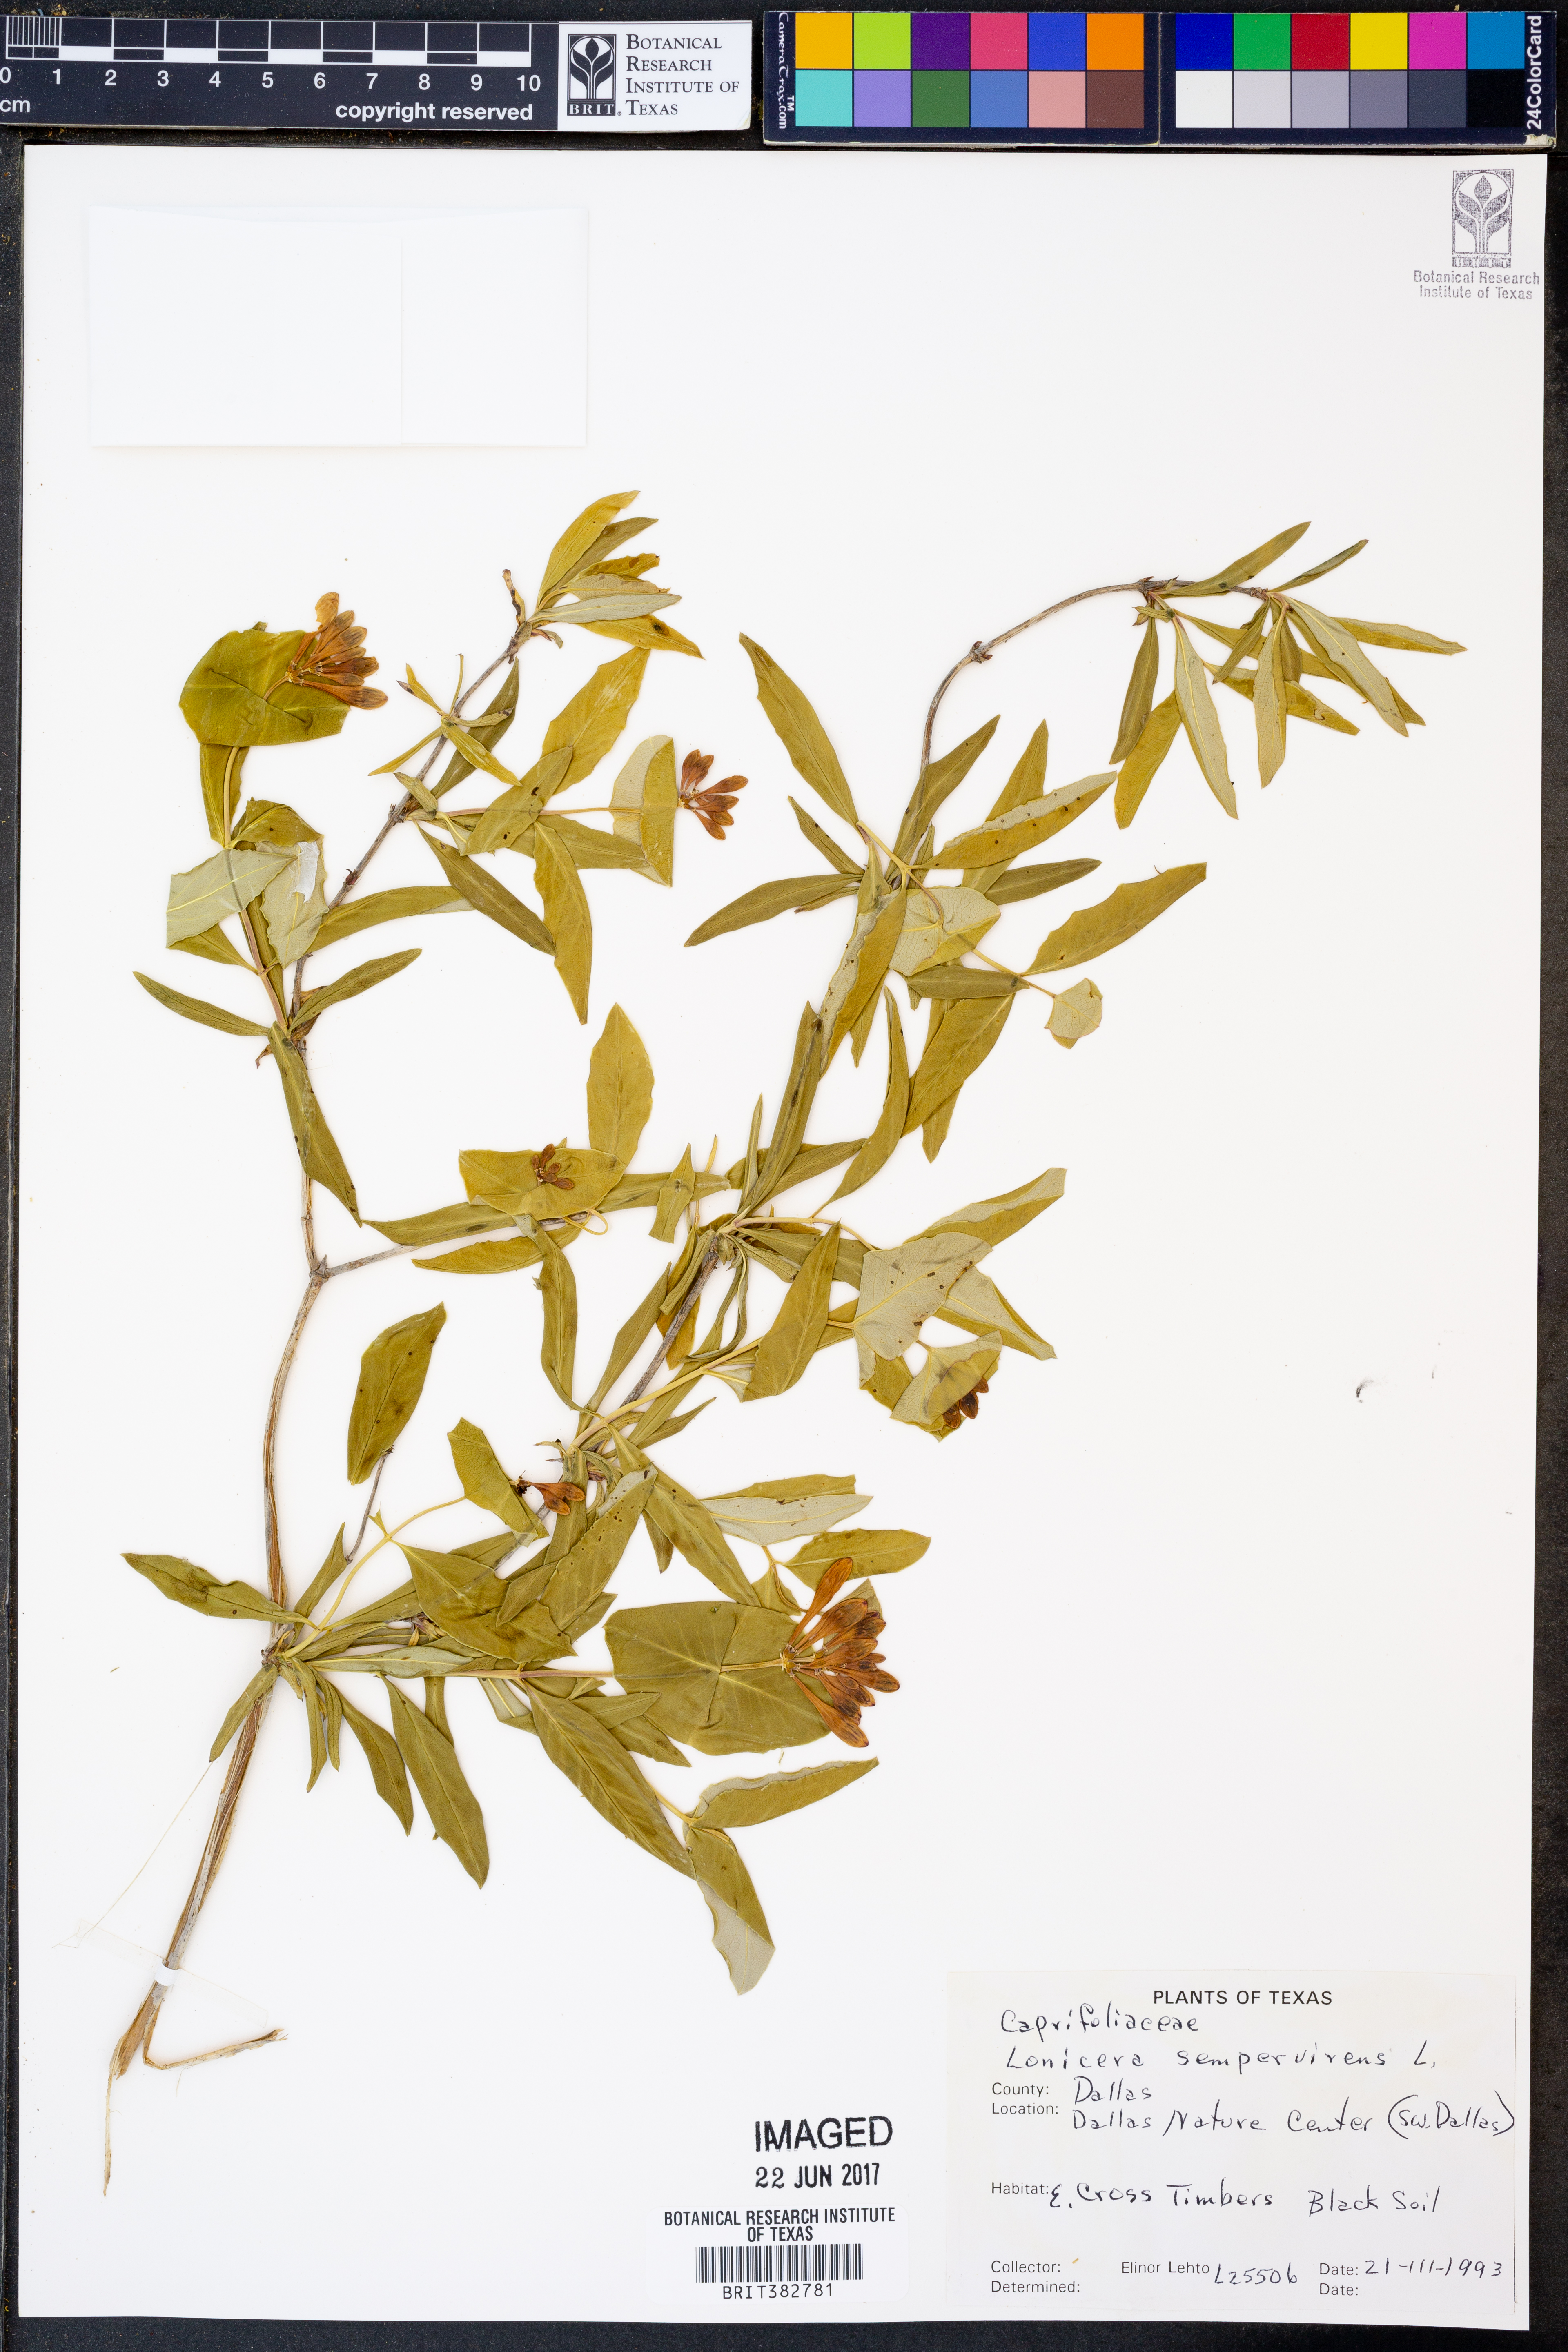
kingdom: Plantae
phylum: Tracheophyta
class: Magnoliopsida
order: Dipsacales
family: Caprifoliaceae
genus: Lonicera
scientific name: Lonicera sempervirens
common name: Coral honeysuckle
